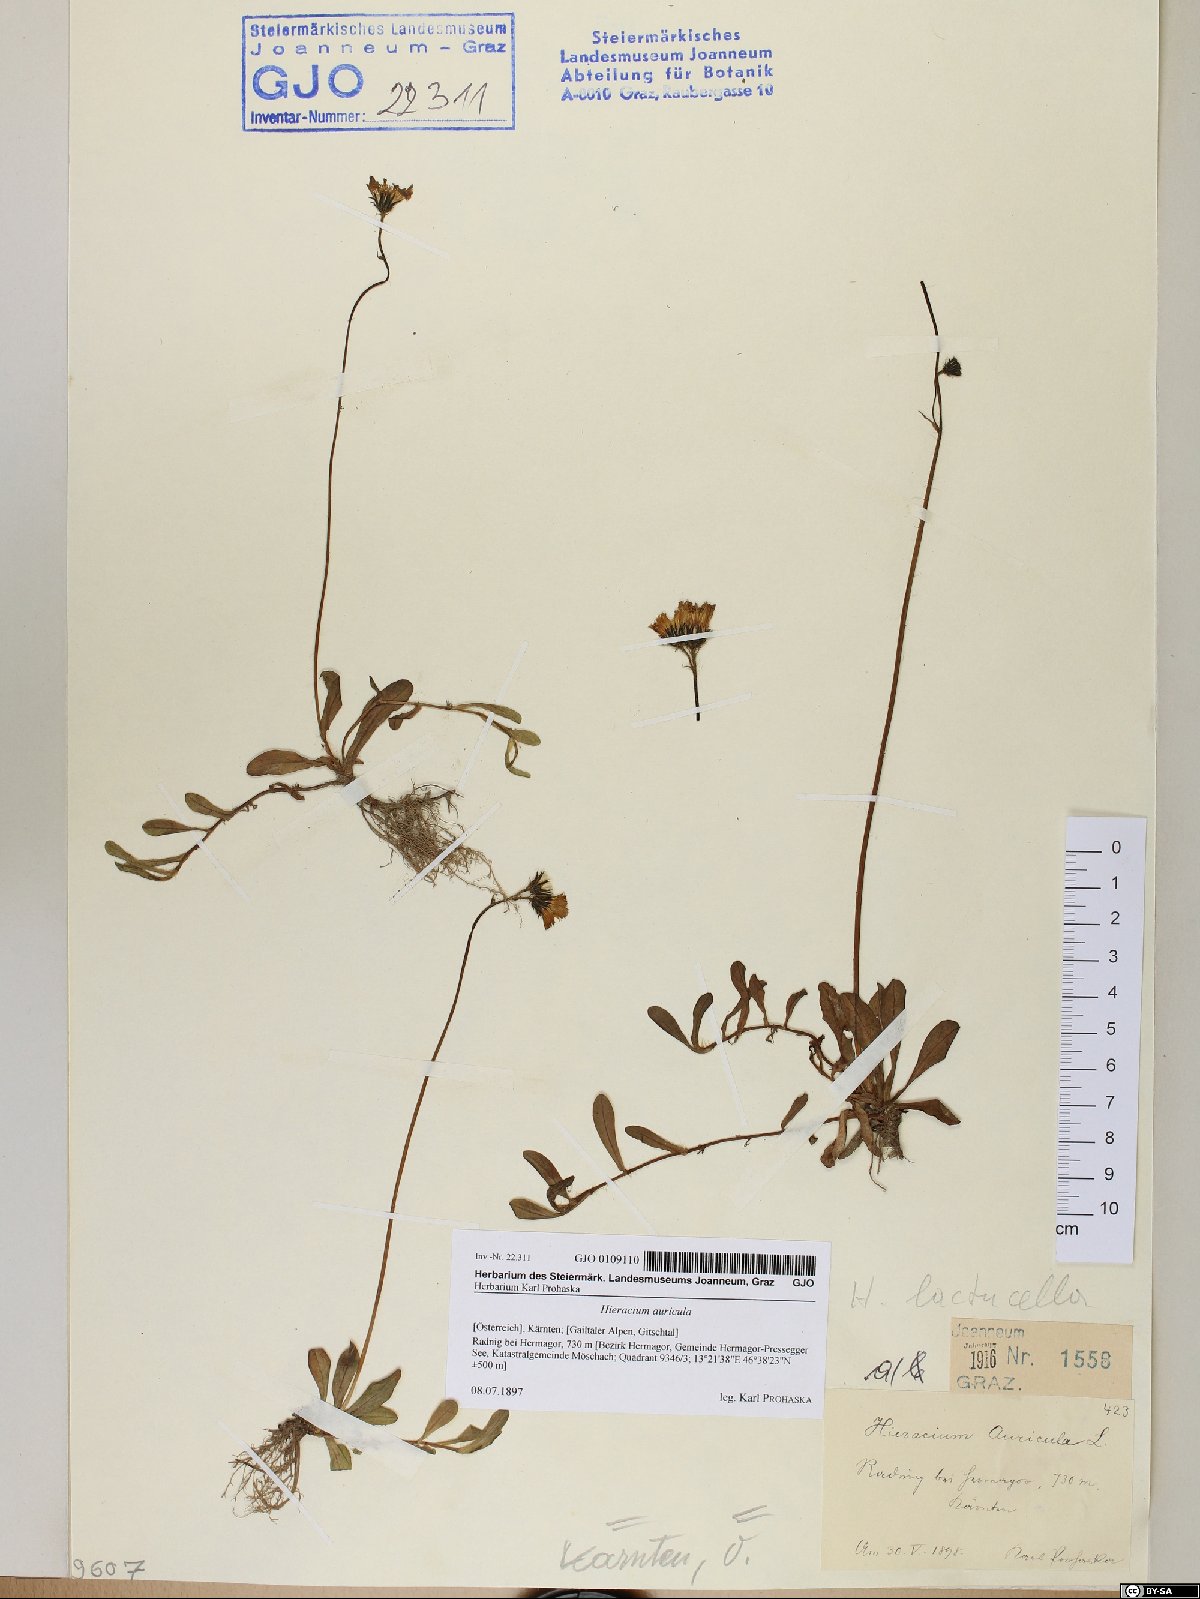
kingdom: Plantae
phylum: Tracheophyta
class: Magnoliopsida
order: Asterales
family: Asteraceae
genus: Hieracium
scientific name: Hieracium auricula
